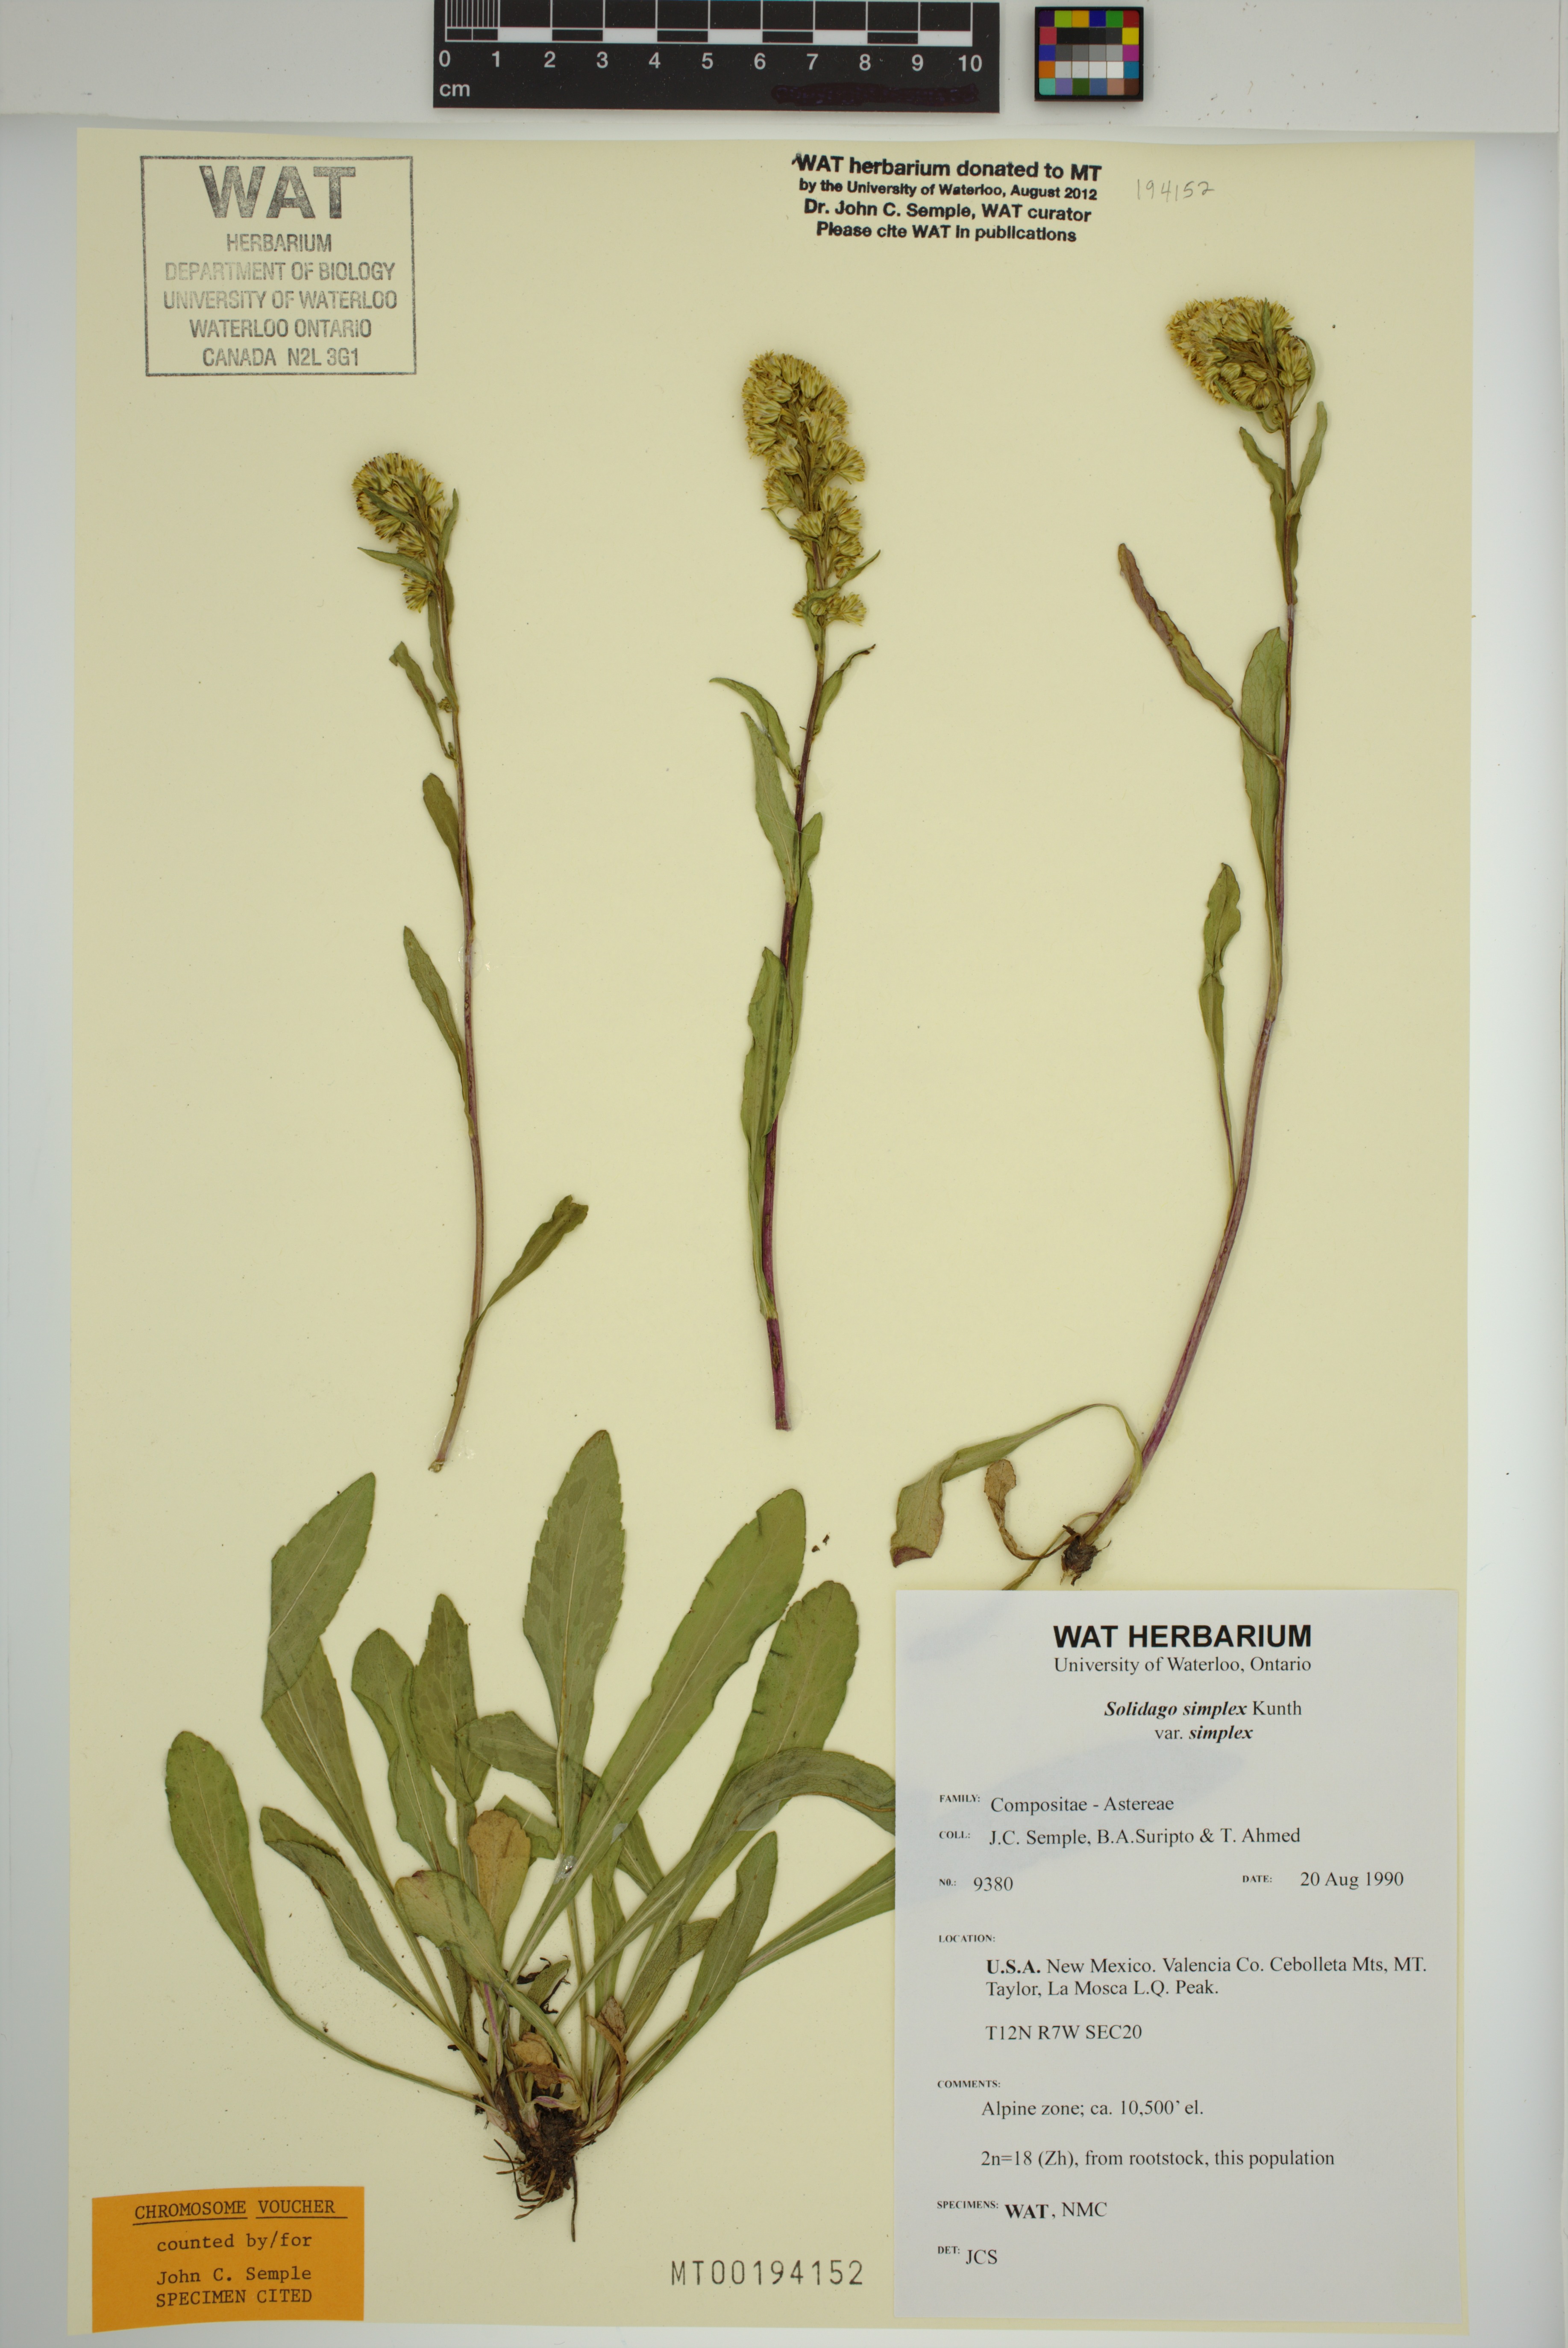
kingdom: Plantae
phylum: Tracheophyta
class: Magnoliopsida
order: Asterales
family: Asteraceae
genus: Solidago
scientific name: Solidago glutinosa
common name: Decumbent goldenrod
